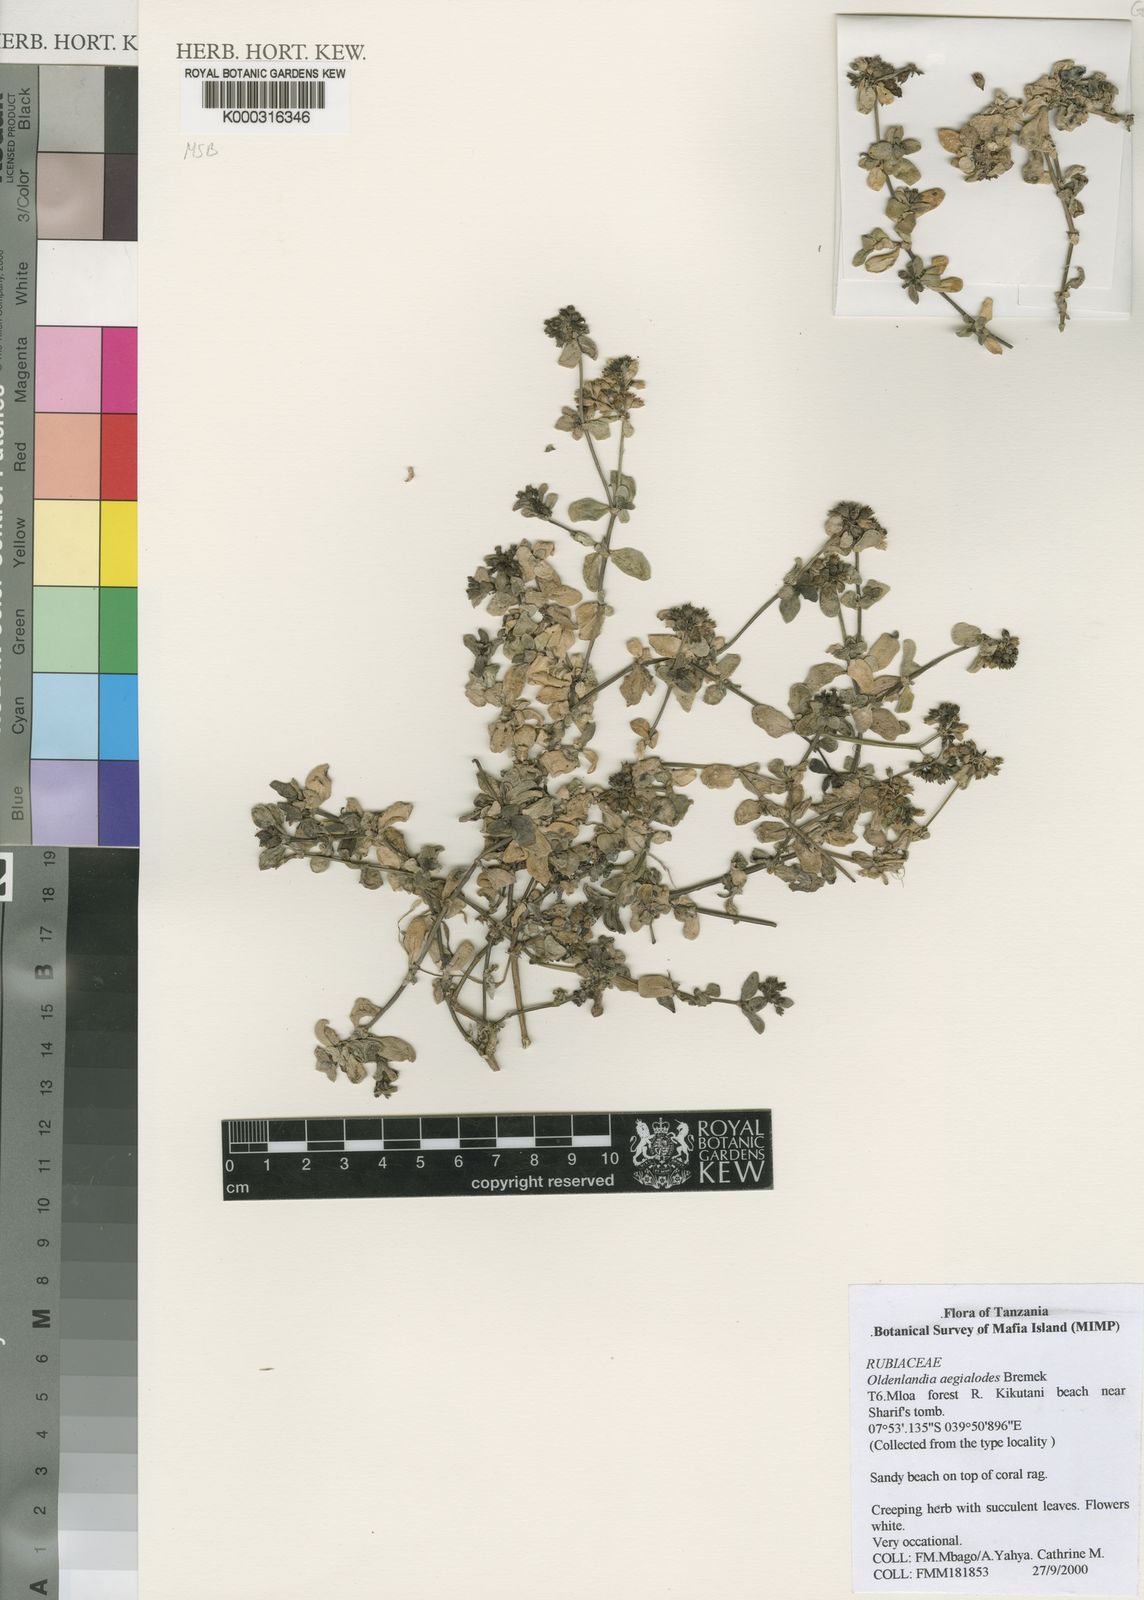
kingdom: Plantae
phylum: Tracheophyta
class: Magnoliopsida
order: Gentianales
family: Rubiaceae
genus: Oldenlandia
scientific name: Oldenlandia aegialodes
